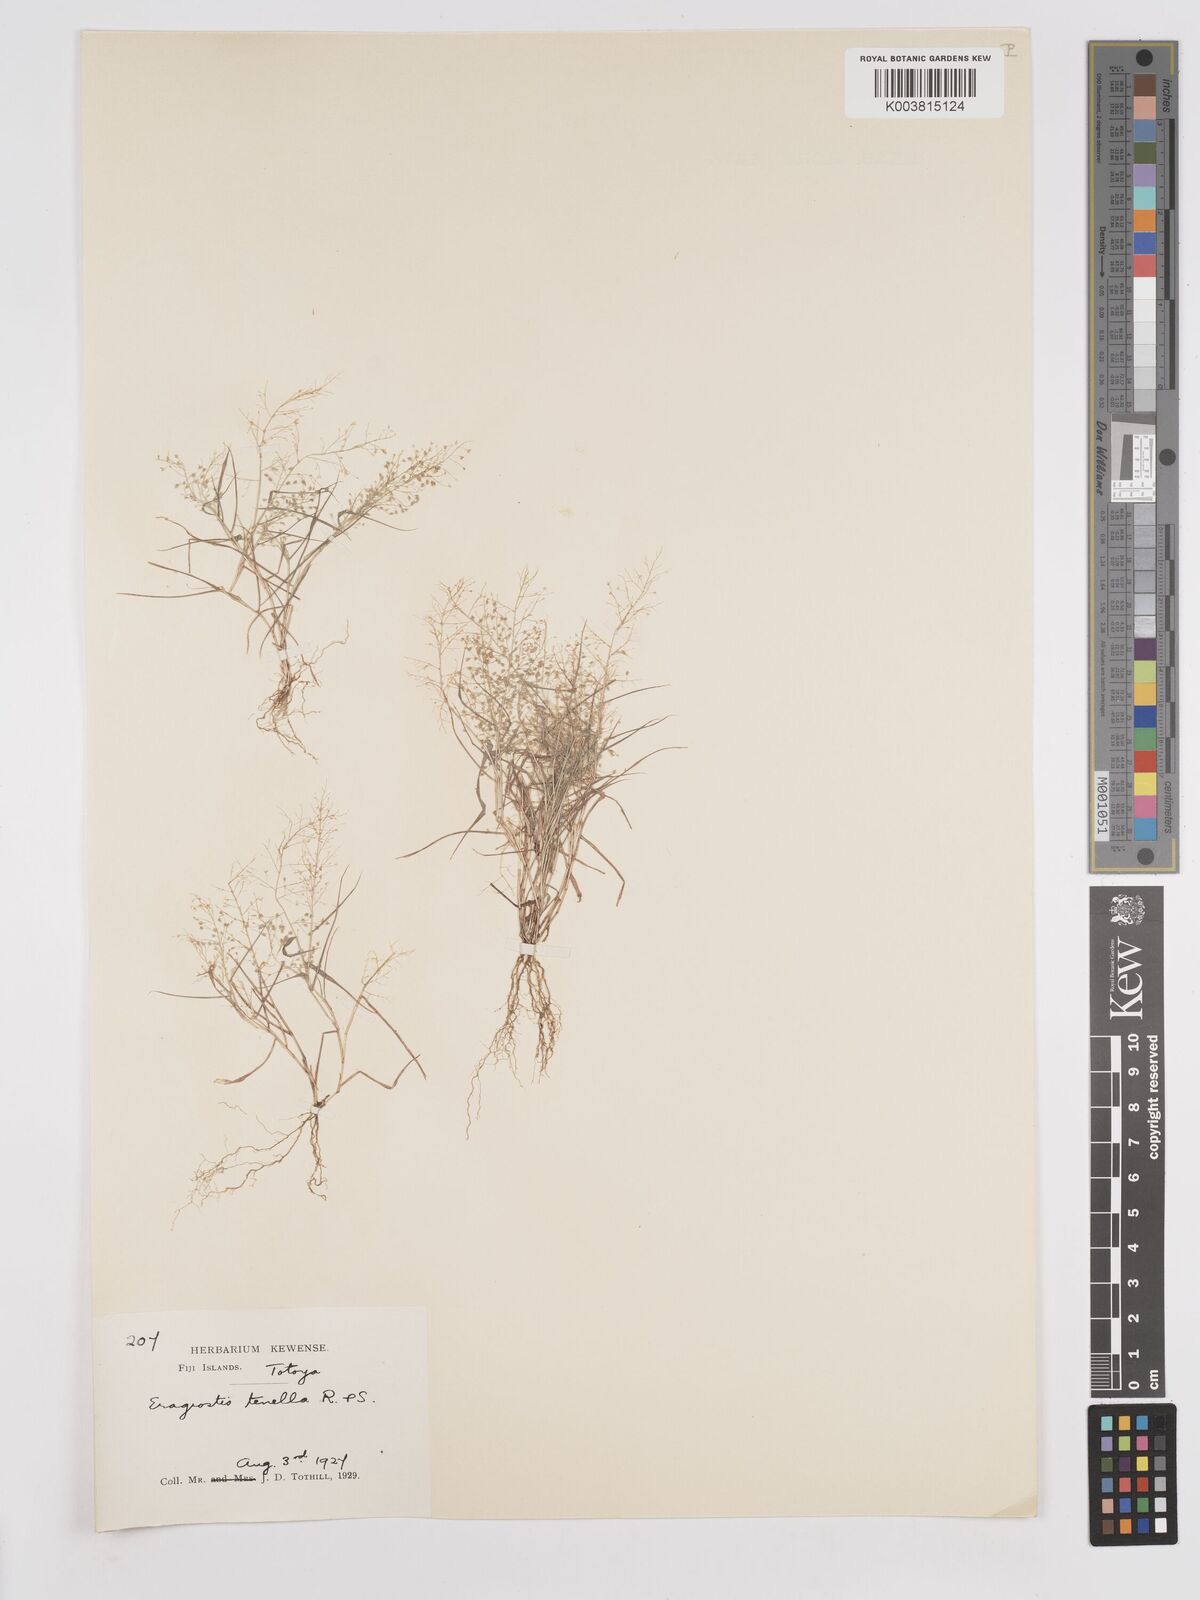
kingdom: Plantae
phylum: Tracheophyta
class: Liliopsida
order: Poales
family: Poaceae
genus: Eragrostis
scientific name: Eragrostis tenella
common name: Japanese lovegrass
